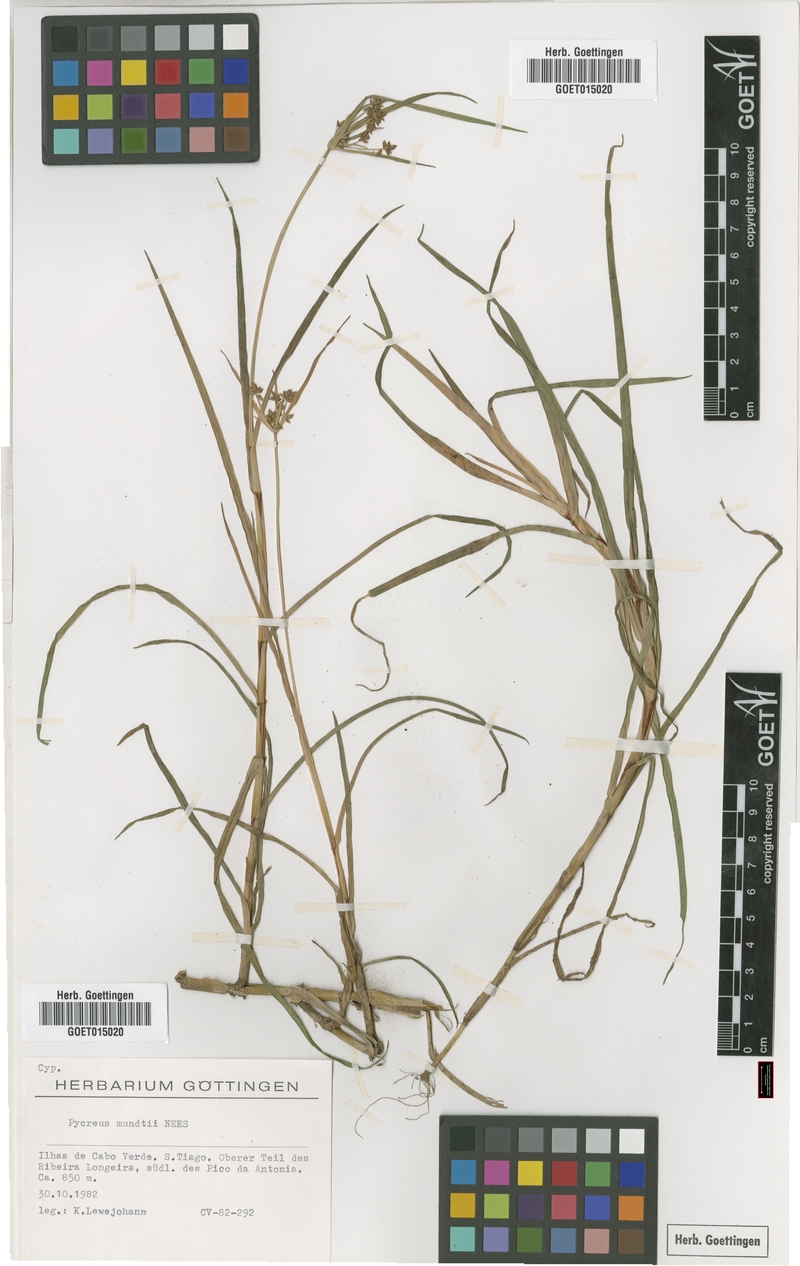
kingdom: Plantae
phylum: Tracheophyta
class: Liliopsida
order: Poales
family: Cyperaceae
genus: Cyperus
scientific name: Cyperus mundii
